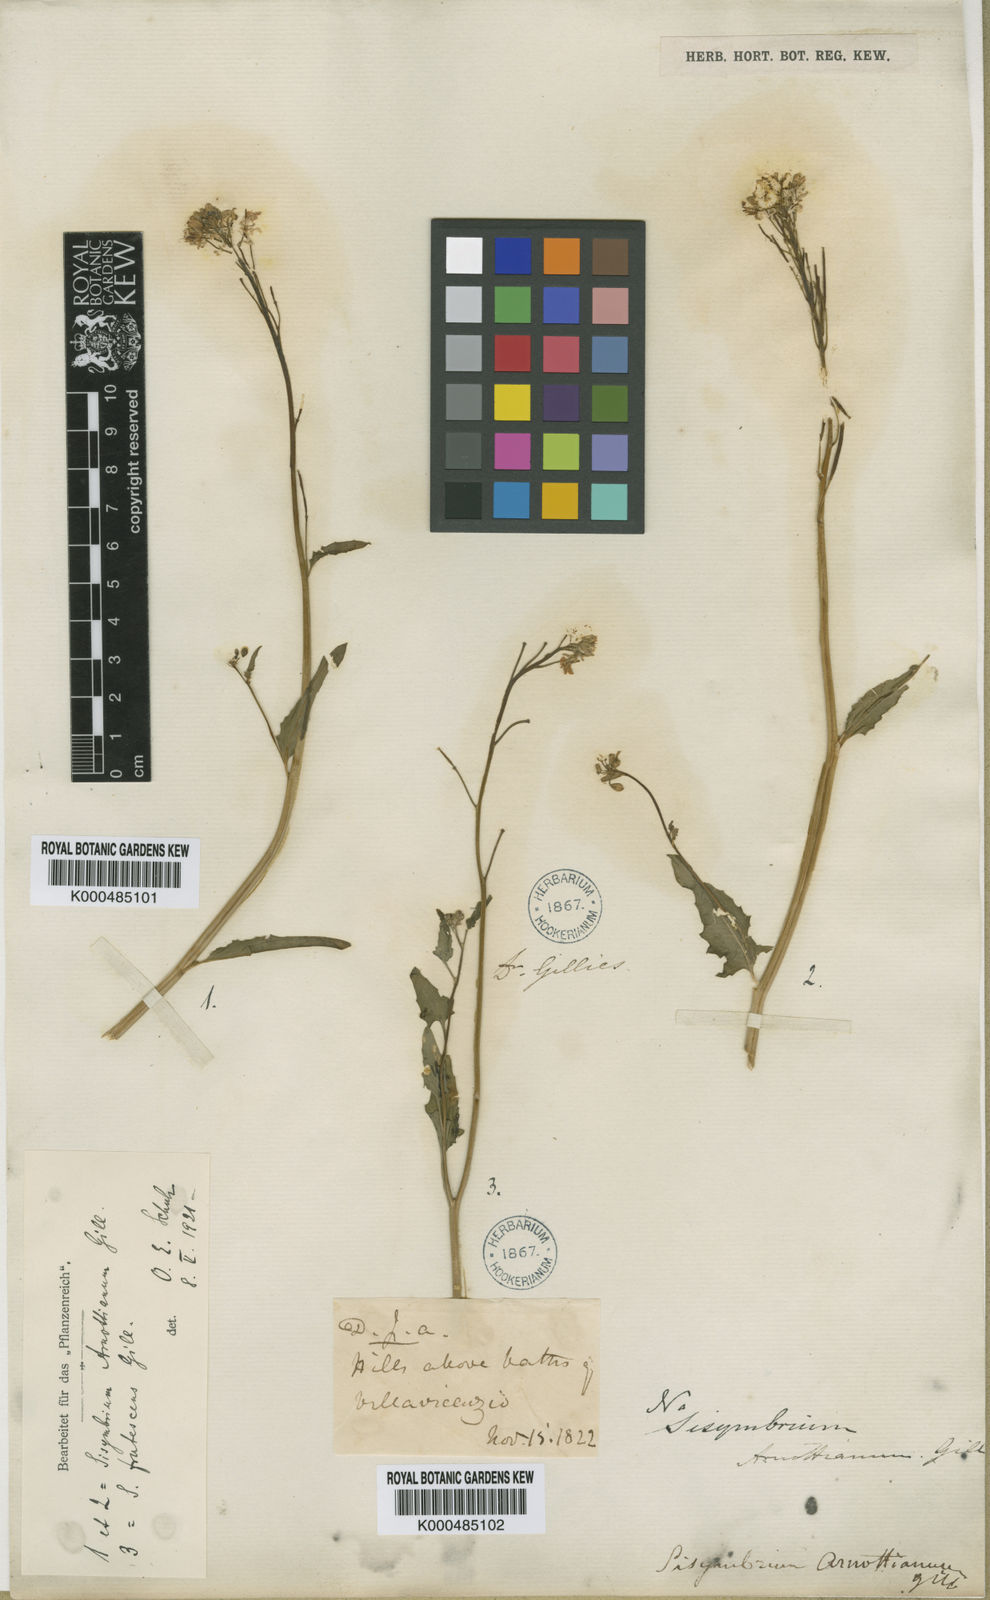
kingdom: Plantae
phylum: Tracheophyta
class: Magnoliopsida
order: Brassicales
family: Brassicaceae
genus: Polypsecadium
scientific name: Polypsecadium arnottianum
